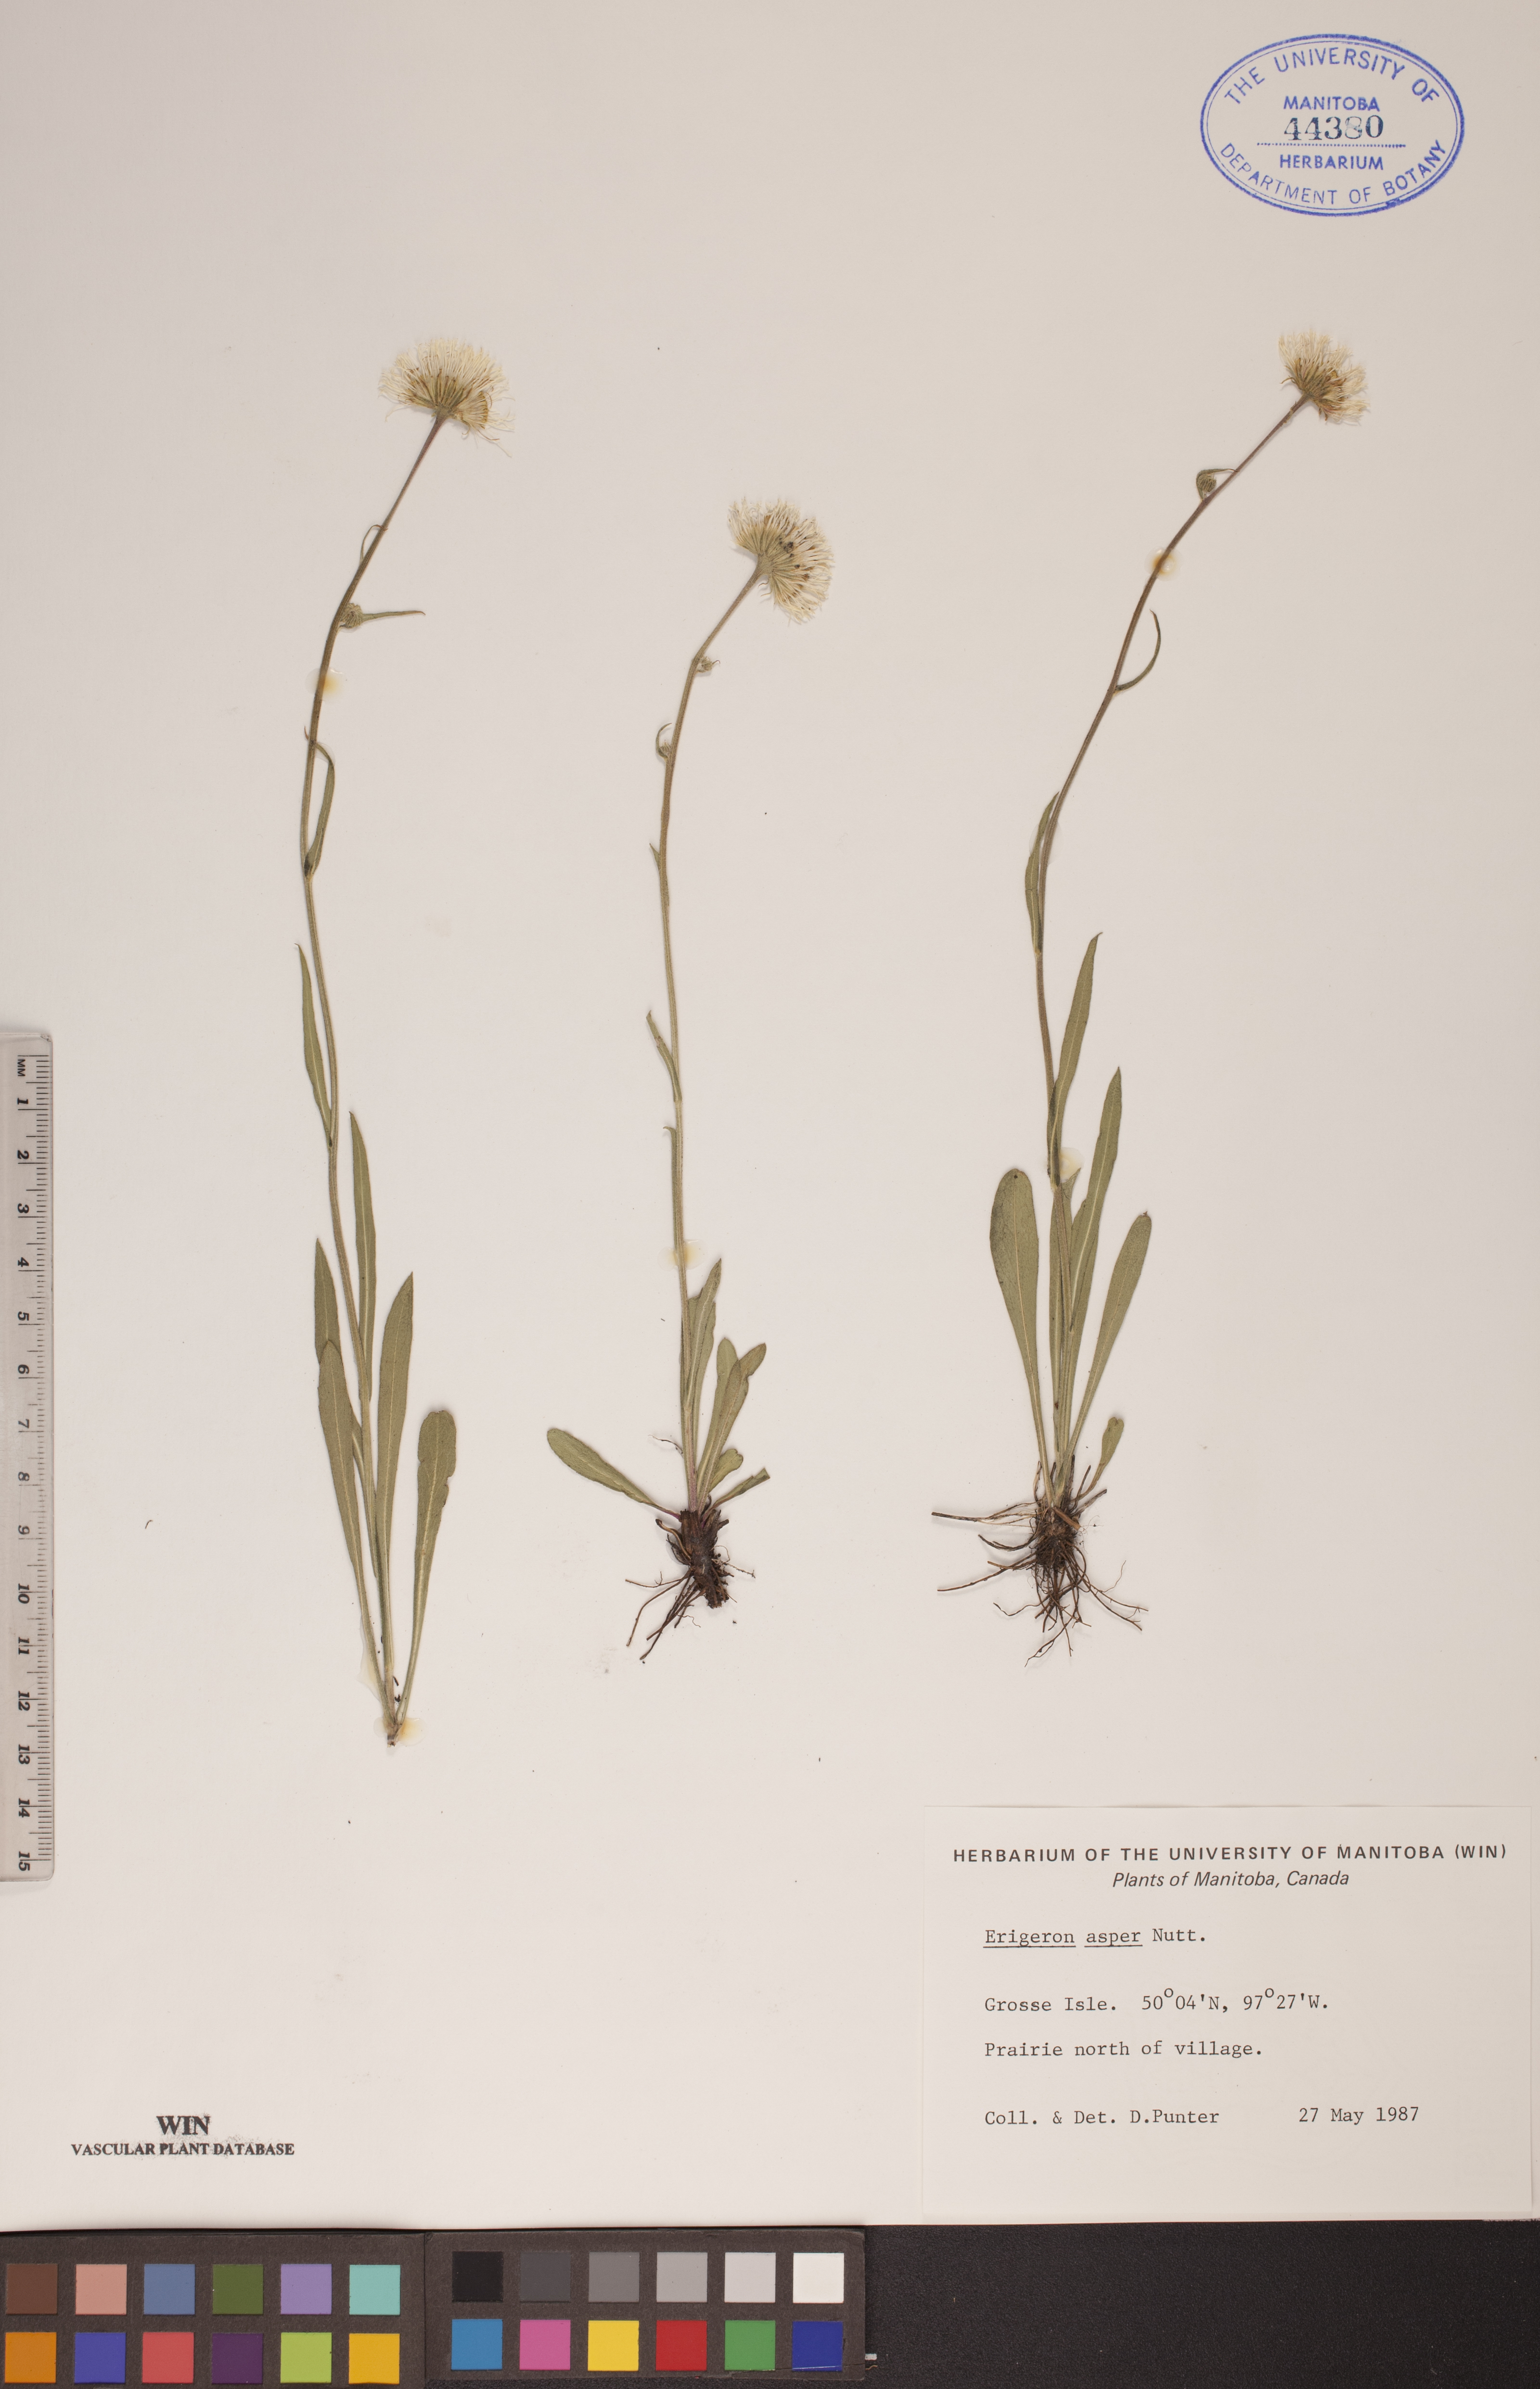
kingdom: Plantae
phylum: Tracheophyta
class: Magnoliopsida
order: Asterales
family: Asteraceae
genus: Erigeron
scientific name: Erigeron glabellus
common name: Smooth fleabane
